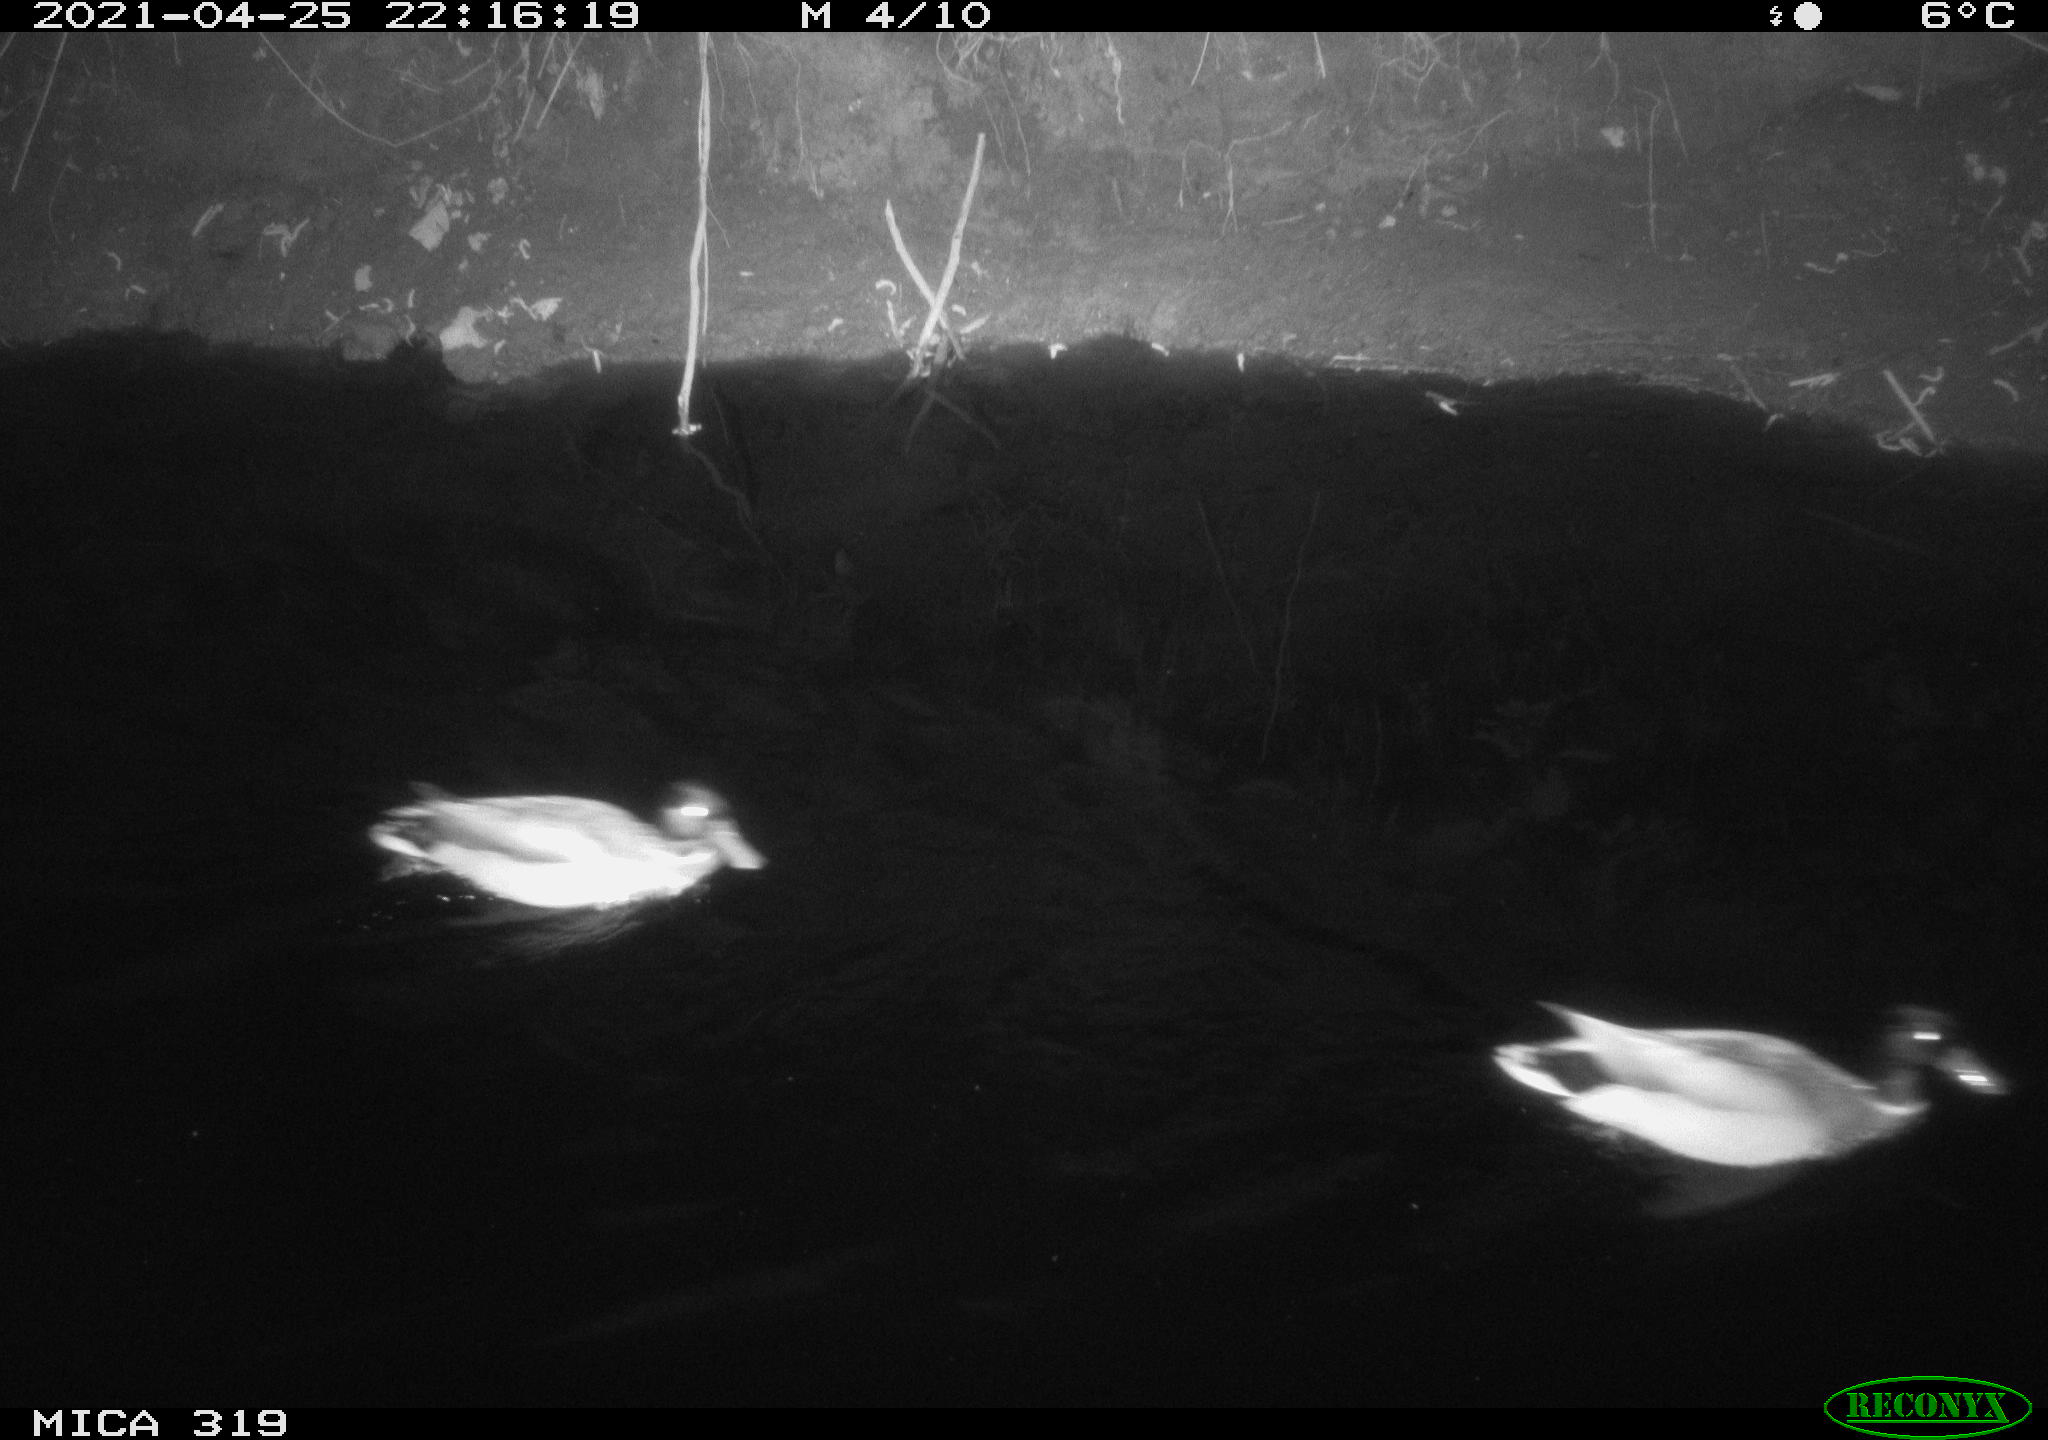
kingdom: Animalia
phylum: Chordata
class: Aves
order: Anseriformes
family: Anatidae
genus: Anas
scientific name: Anas platyrhynchos
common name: Mallard
